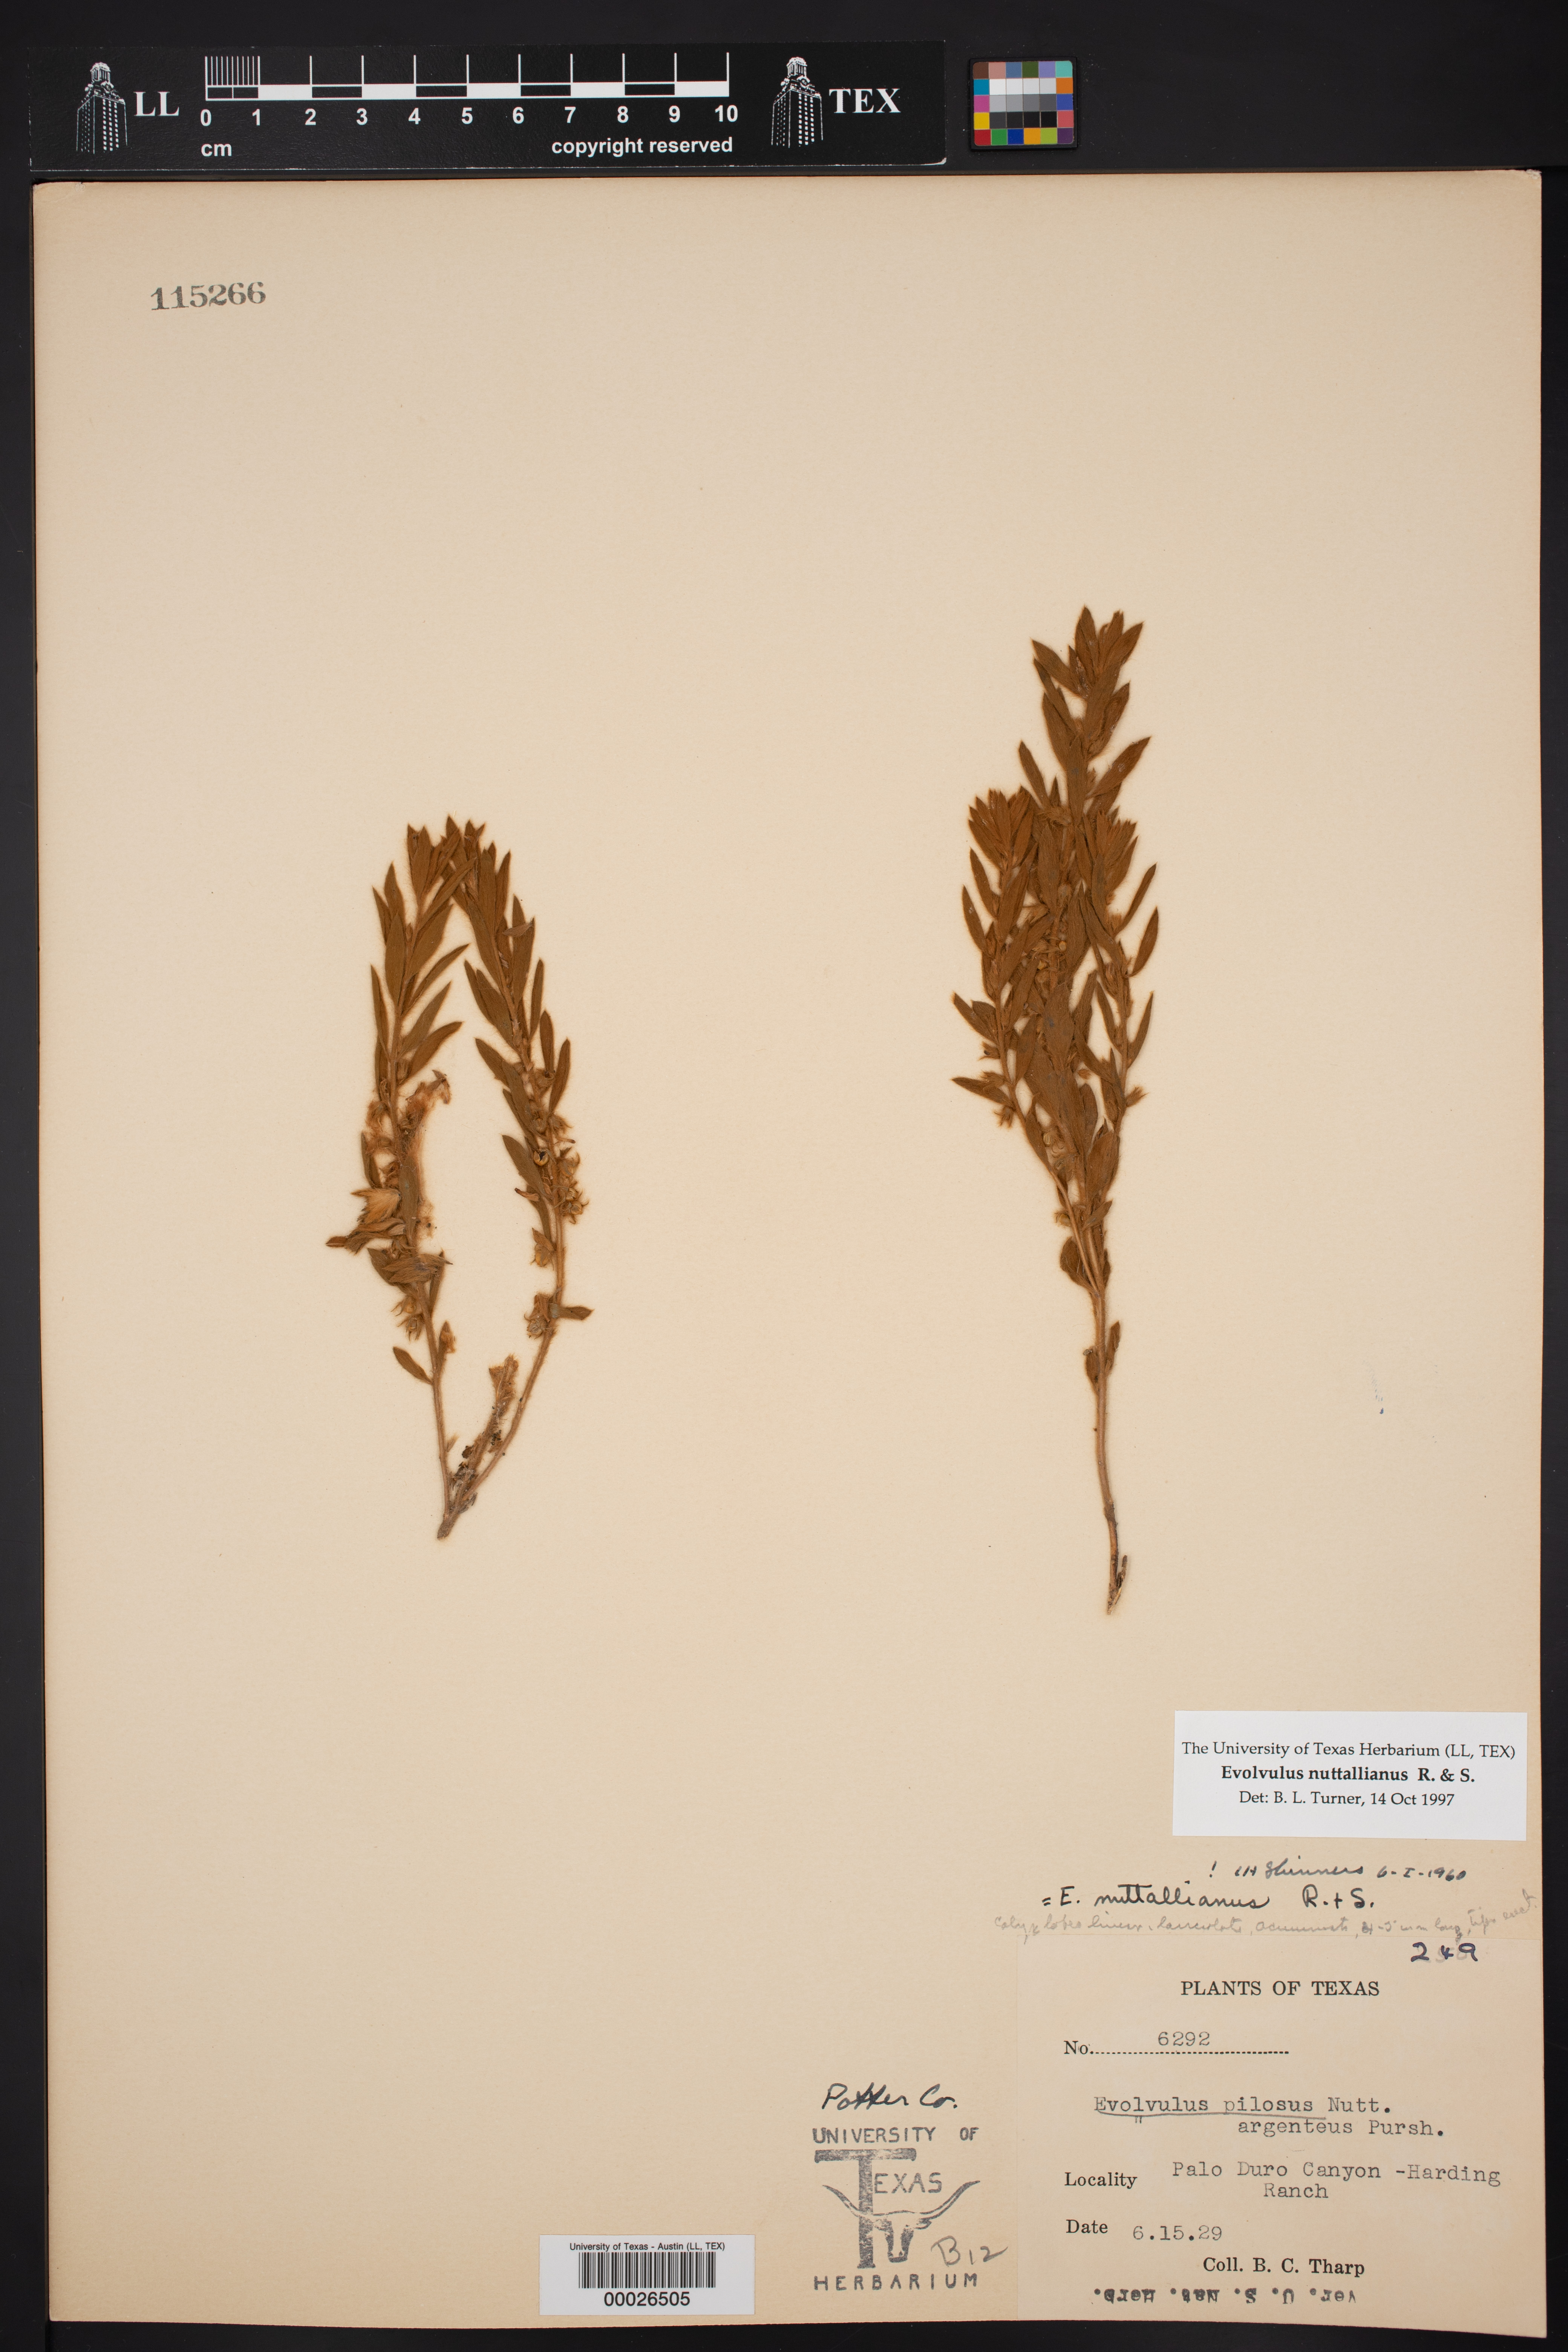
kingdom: Plantae
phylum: Tracheophyta
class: Magnoliopsida
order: Solanales
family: Convolvulaceae
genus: Evolvulus
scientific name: Evolvulus nuttallianus
